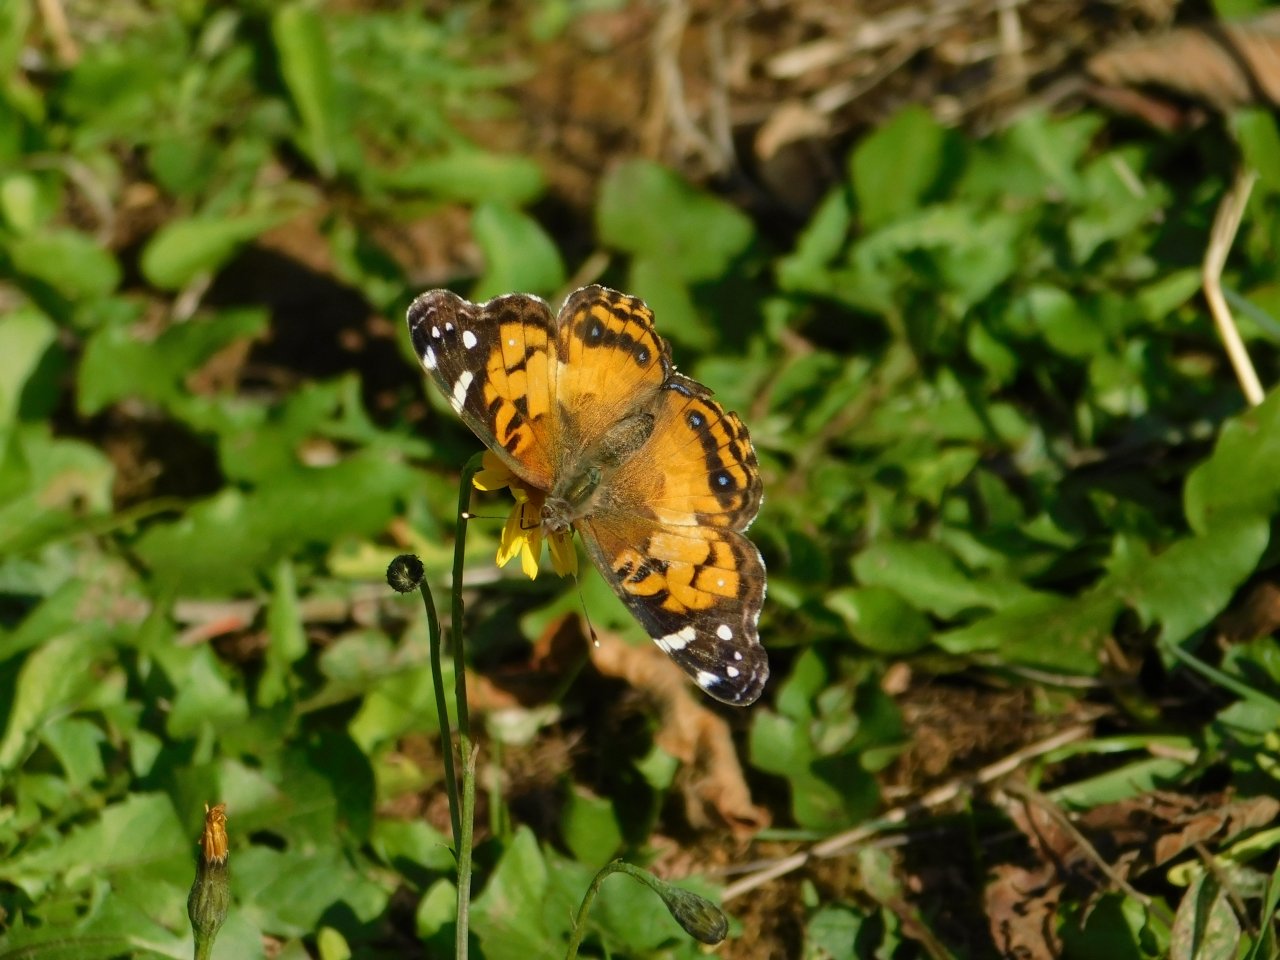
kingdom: Animalia
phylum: Arthropoda
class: Insecta
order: Lepidoptera
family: Nymphalidae
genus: Vanessa
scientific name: Vanessa virginiensis
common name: American Lady
